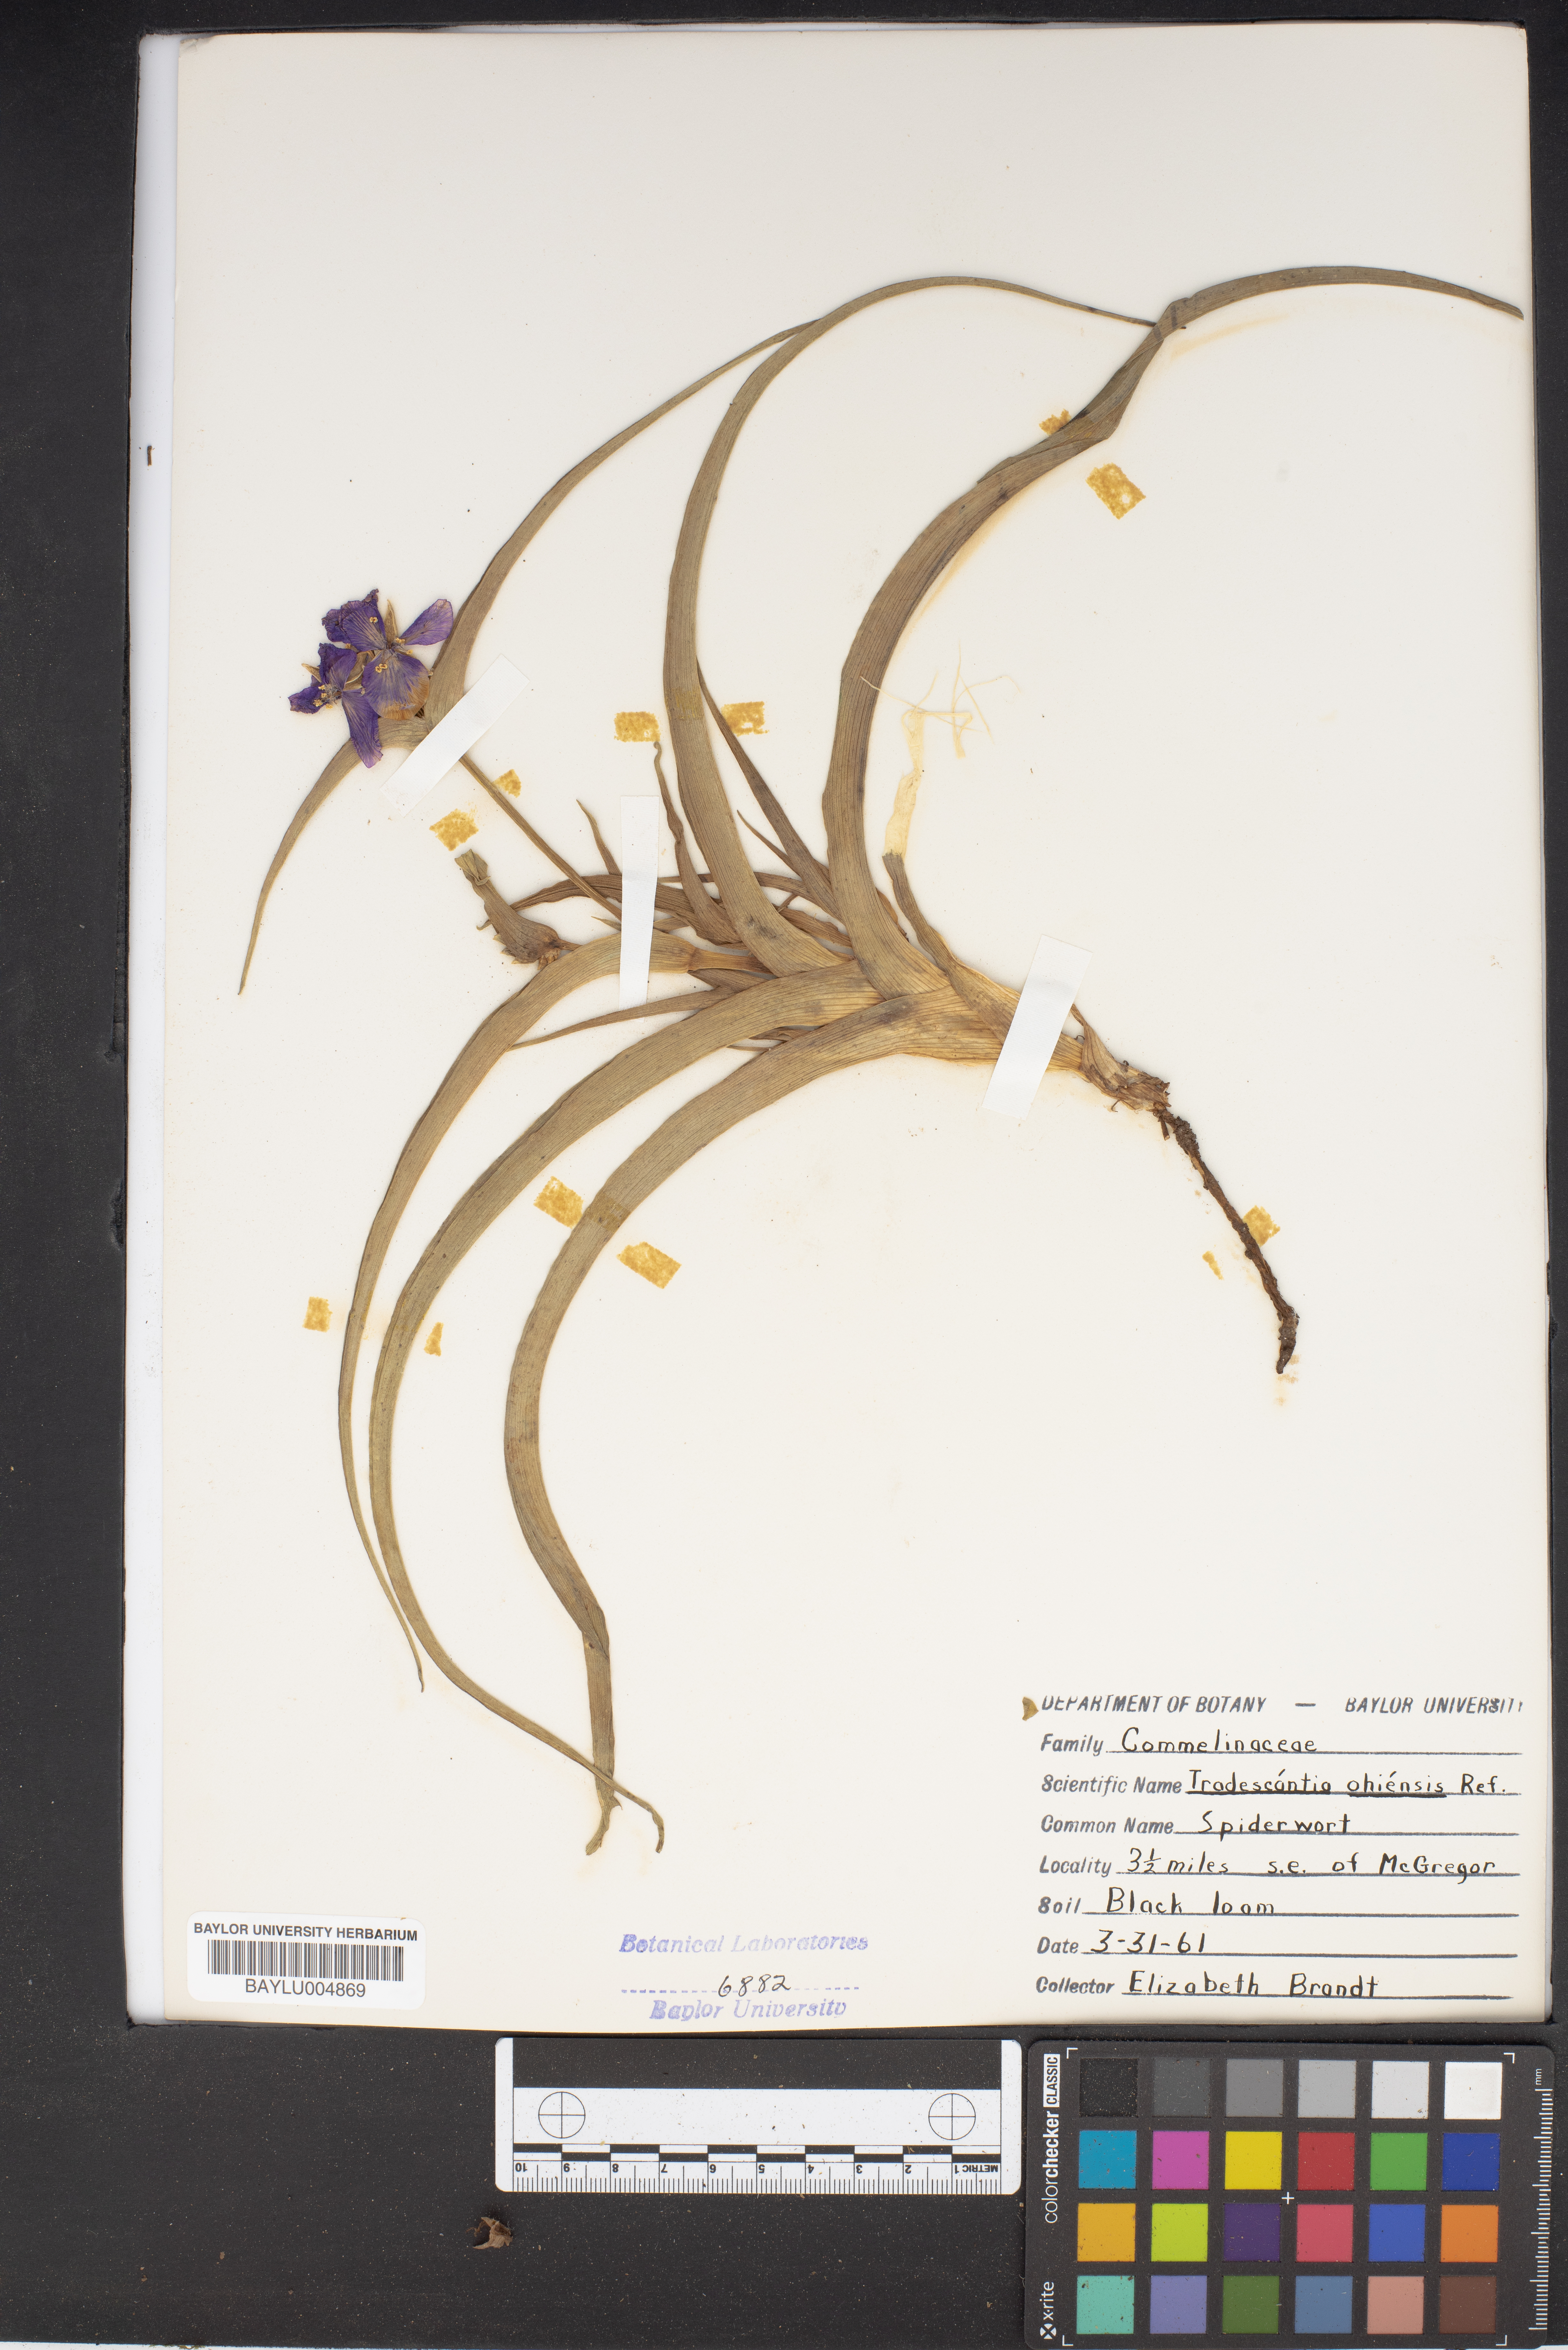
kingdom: Plantae
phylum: Tracheophyta
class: Liliopsida
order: Commelinales
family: Commelinaceae
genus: Tradescantia
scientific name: Tradescantia ohiensis
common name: Ohio spiderwort
